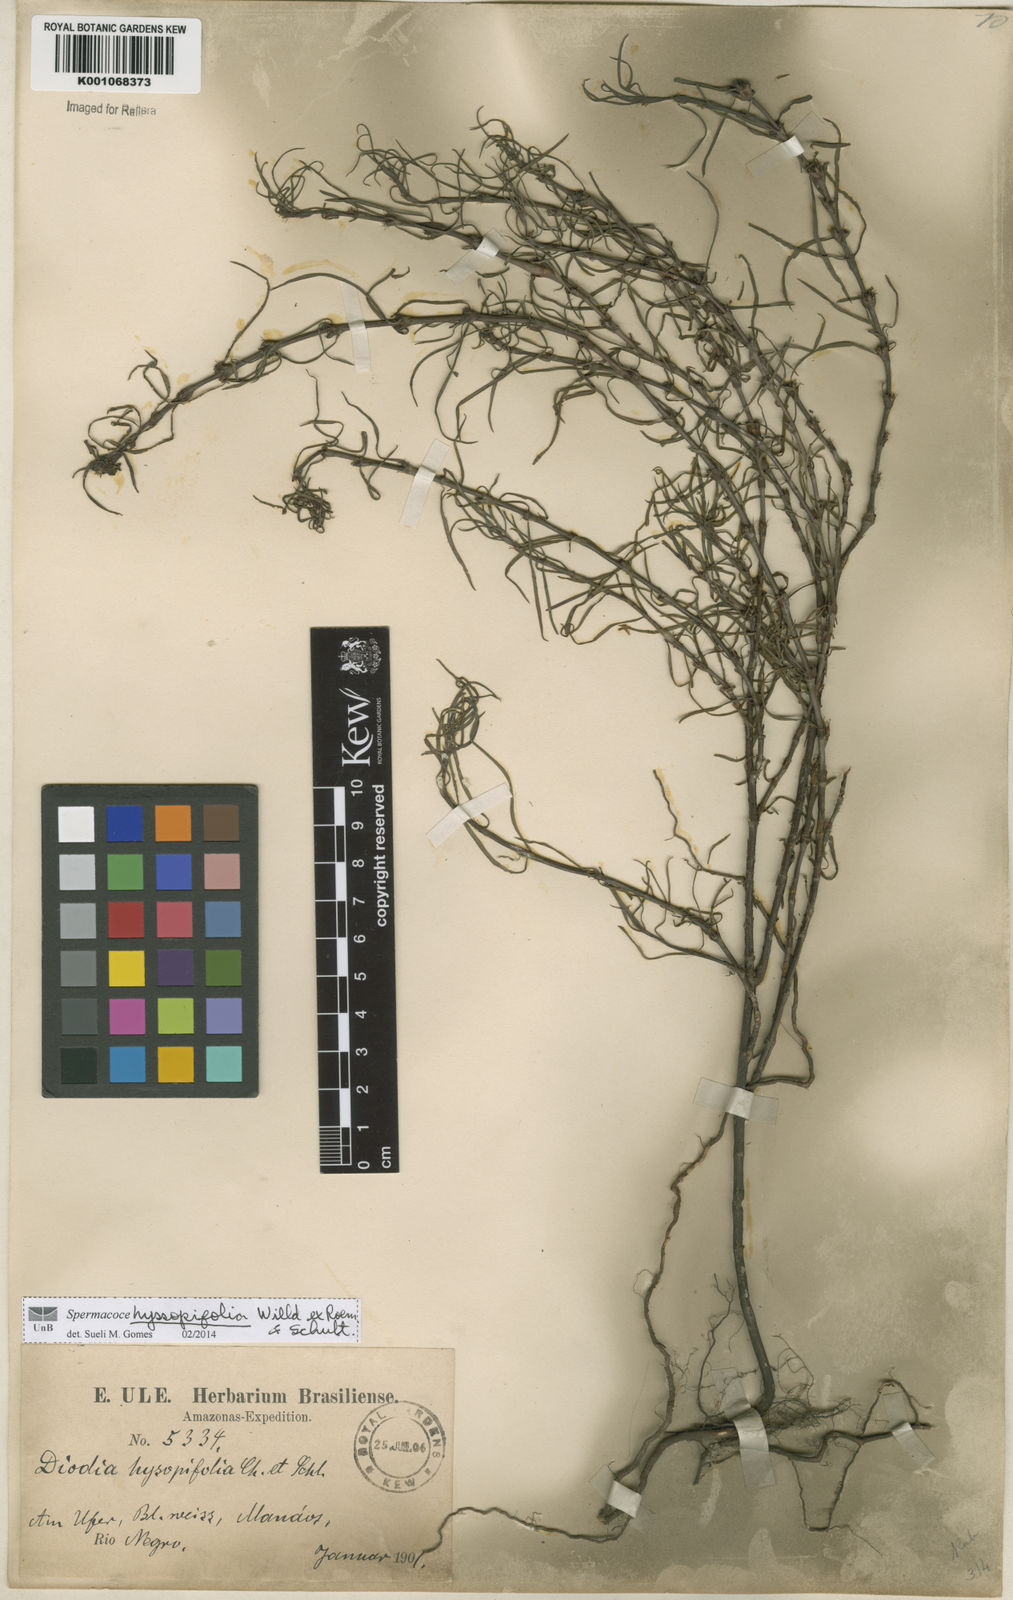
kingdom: Plantae
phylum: Tracheophyta
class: Magnoliopsida
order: Gentianales
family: Rubiaceae
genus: Spermacoce
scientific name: Spermacoce
